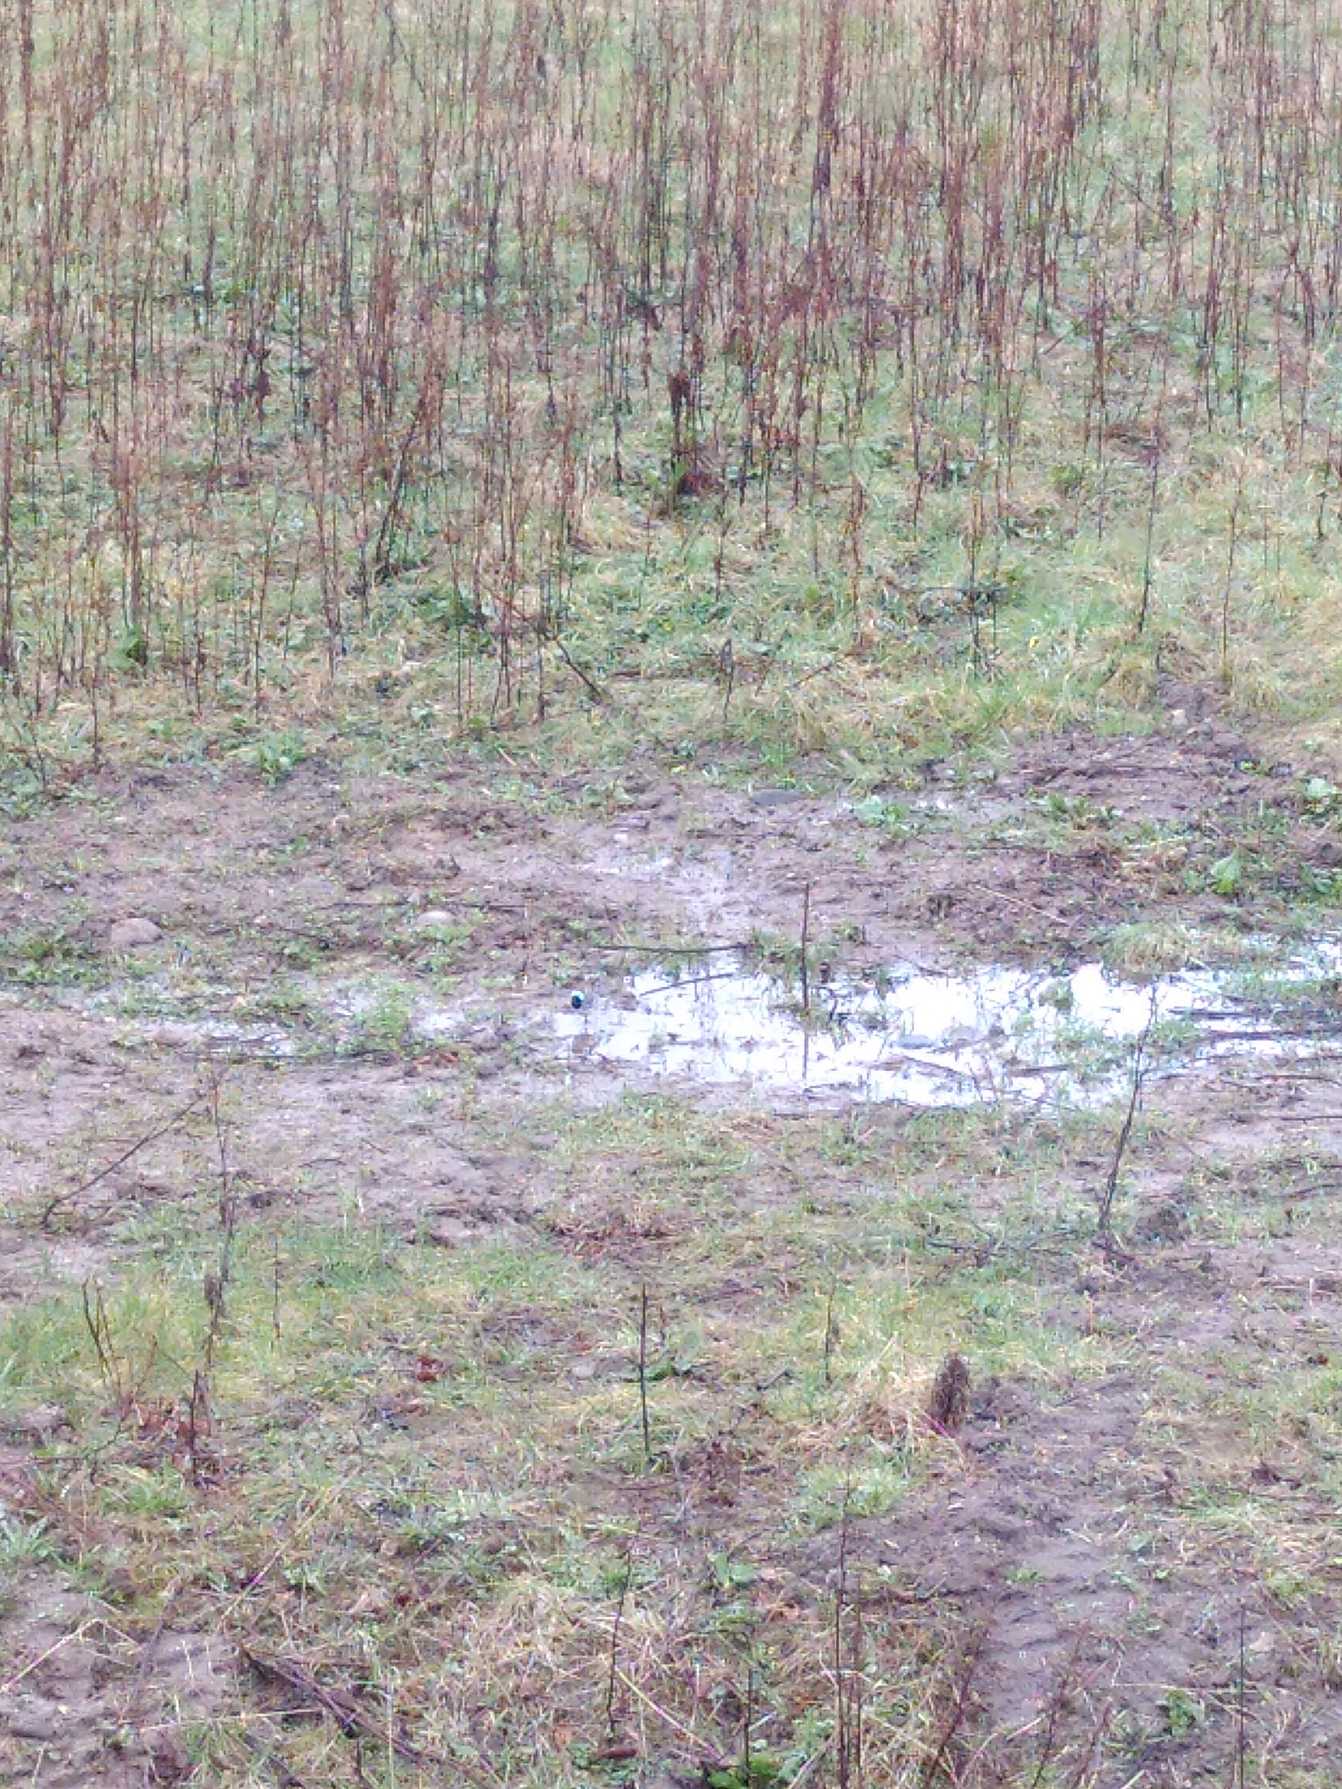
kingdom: Animalia
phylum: Chordata
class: Aves
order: Passeriformes
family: Motacillidae
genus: Motacilla
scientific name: Motacilla alba
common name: Hvid vipstjert
